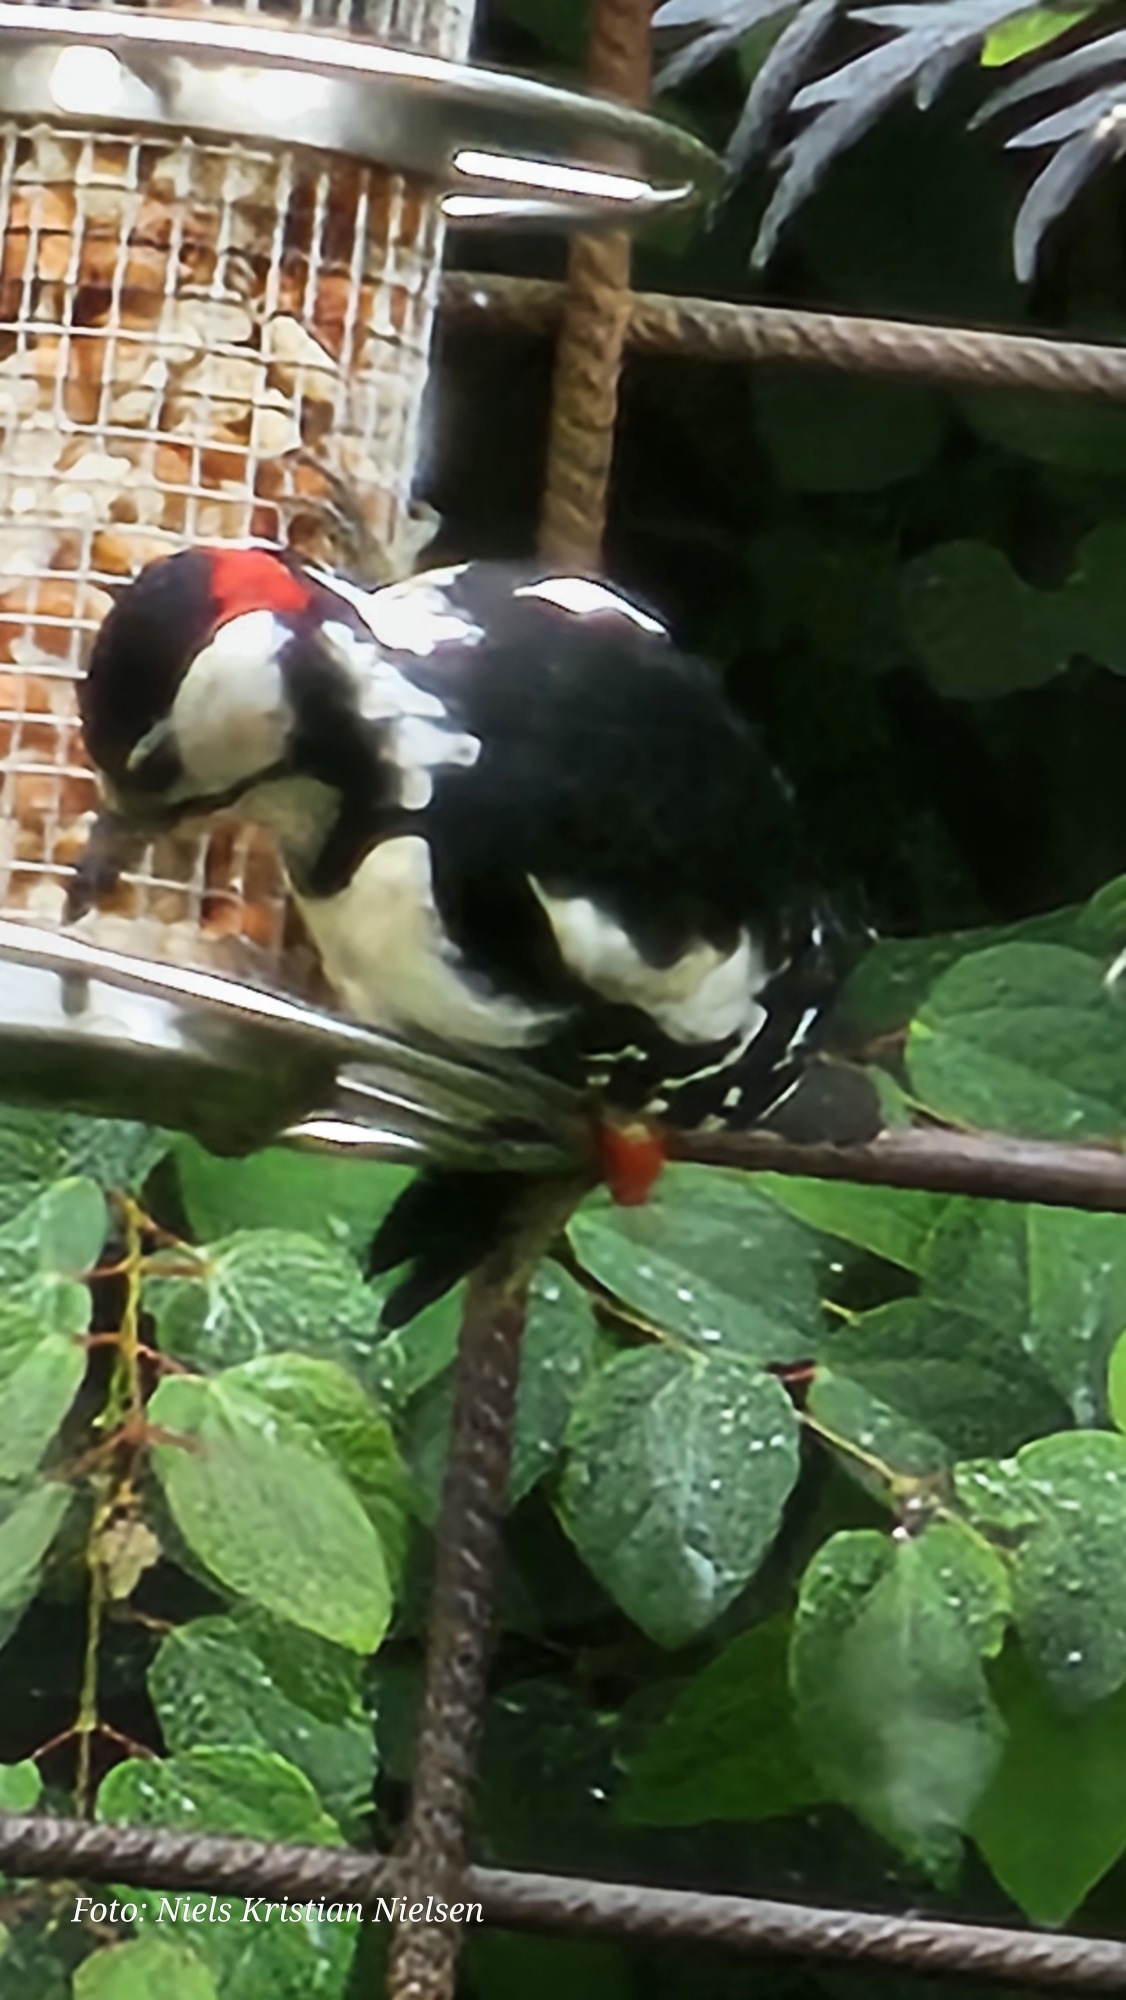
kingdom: Animalia
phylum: Chordata
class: Aves
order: Piciformes
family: Picidae
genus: Dendrocopos
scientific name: Dendrocopos major
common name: Stor flagspætte
